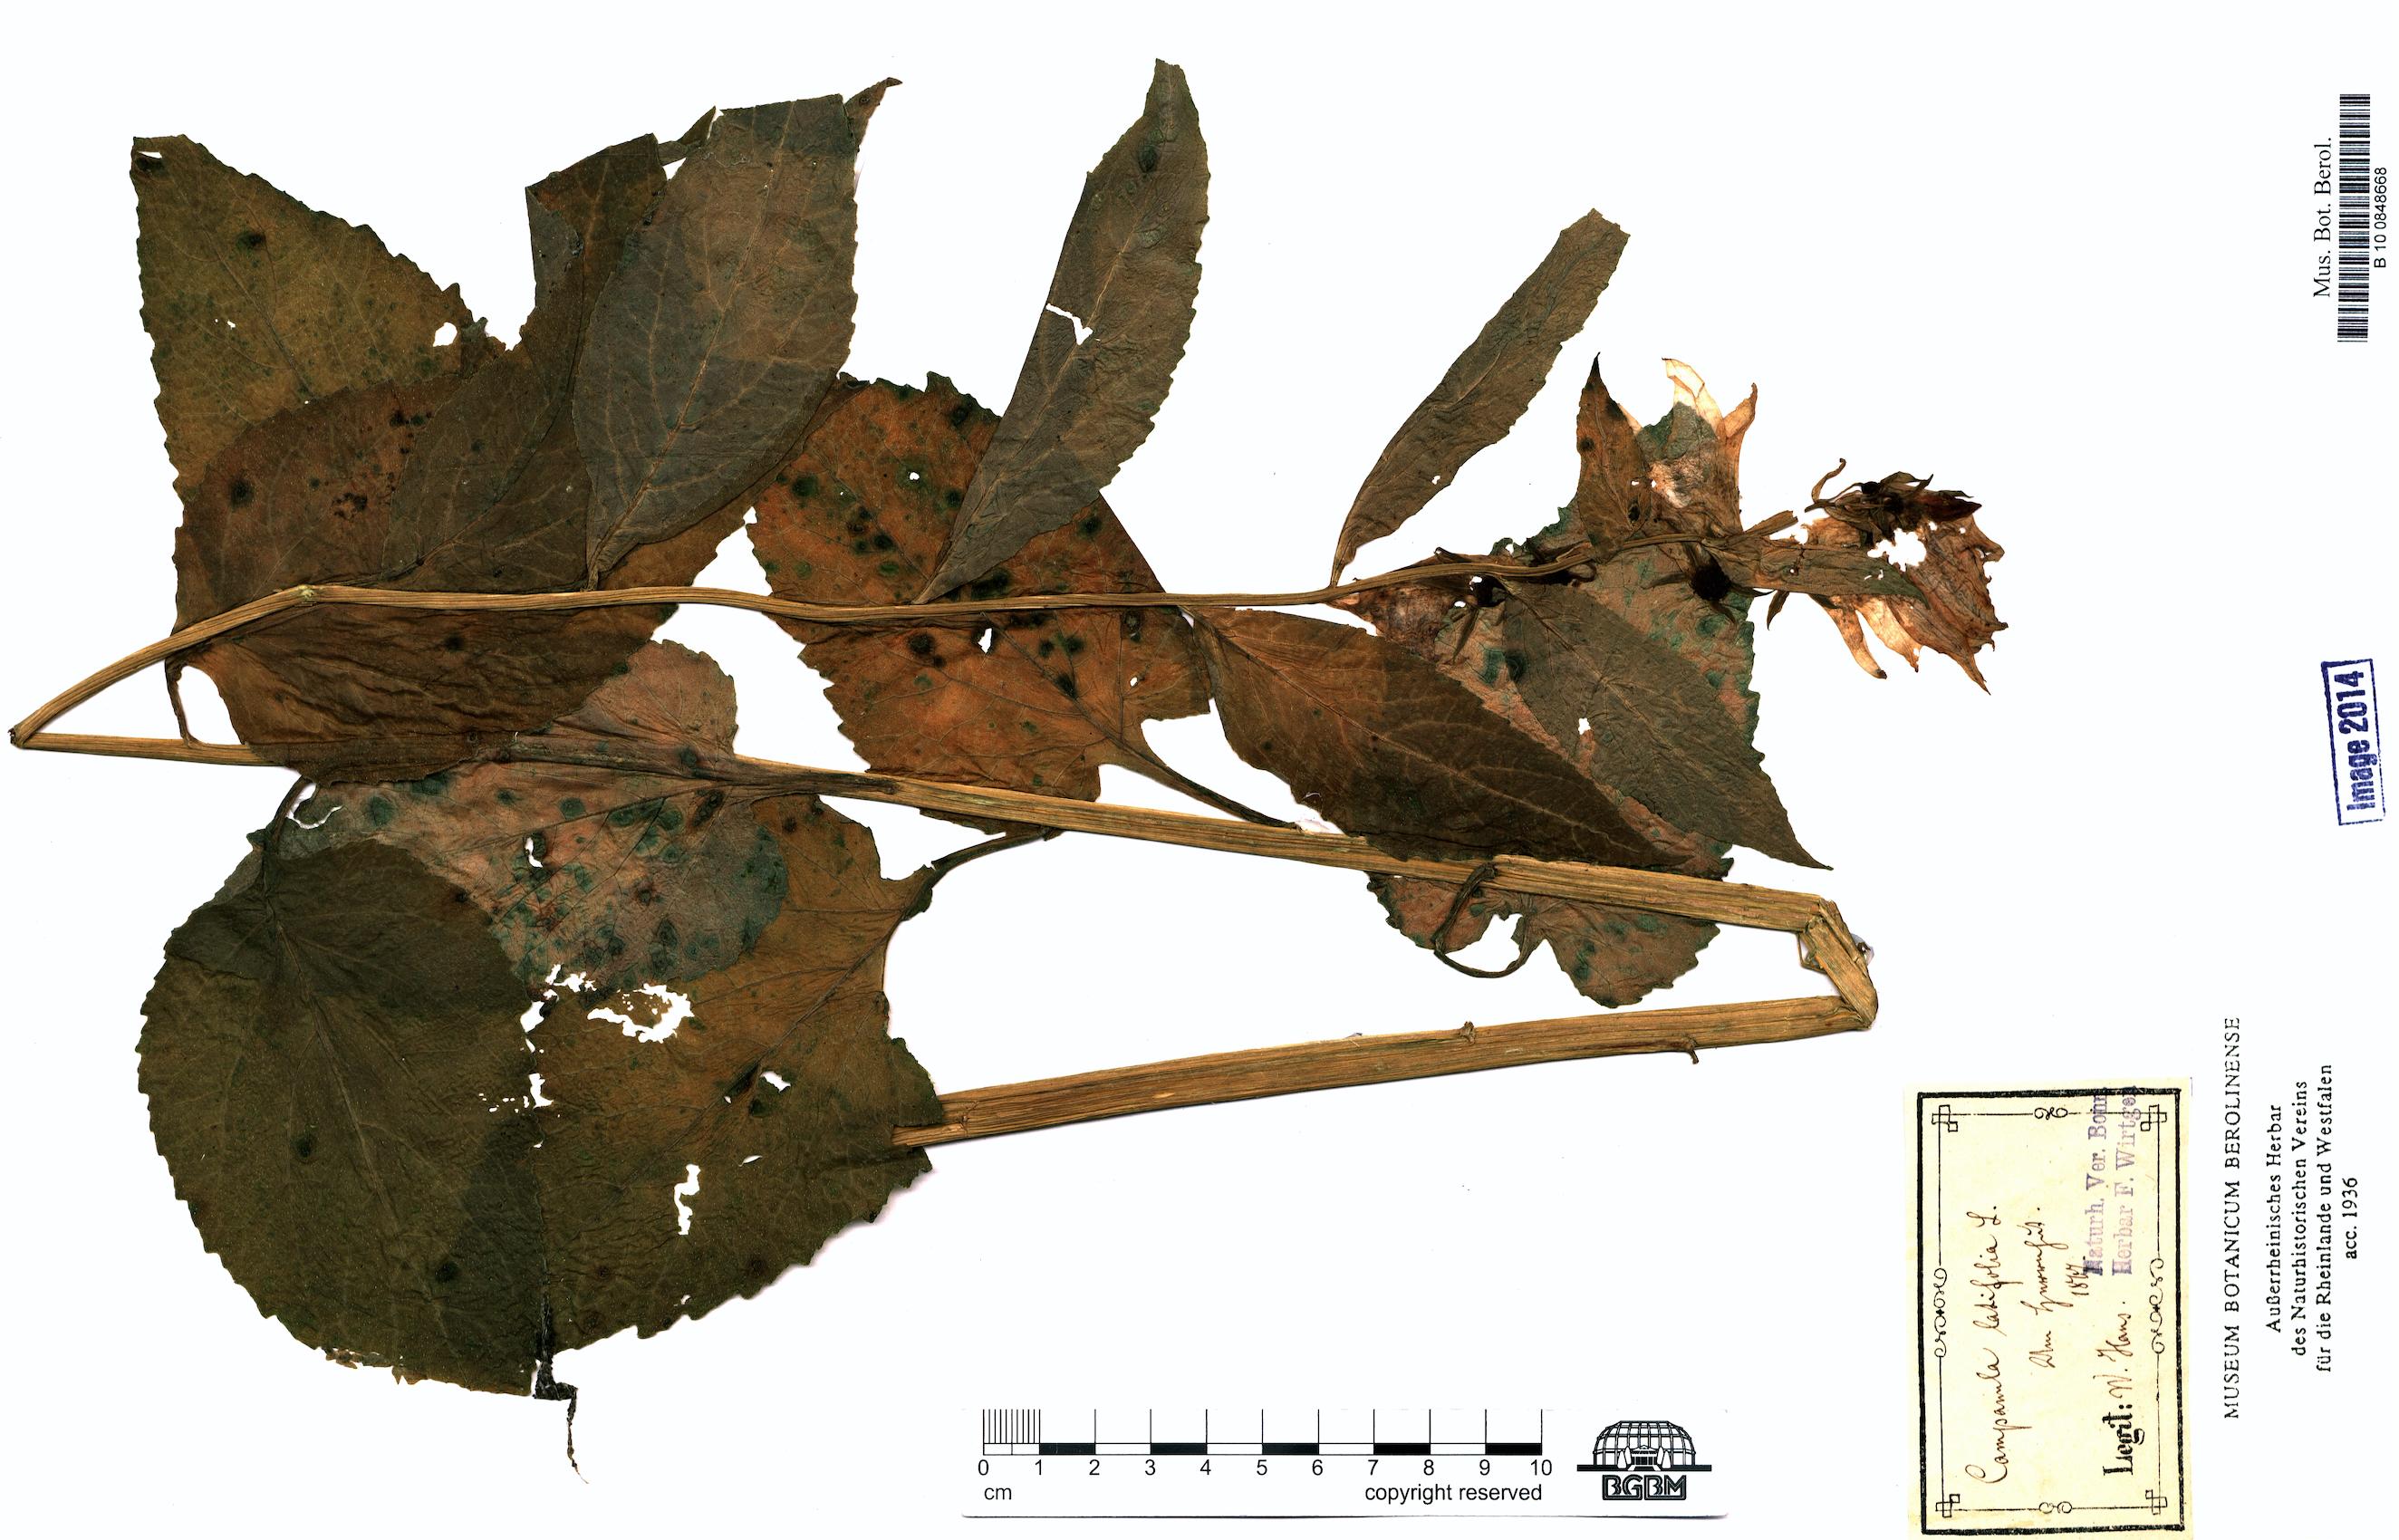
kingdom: Plantae
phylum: Tracheophyta
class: Magnoliopsida
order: Asterales
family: Campanulaceae
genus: Campanula
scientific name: Campanula latifolia
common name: Giant bellflower
